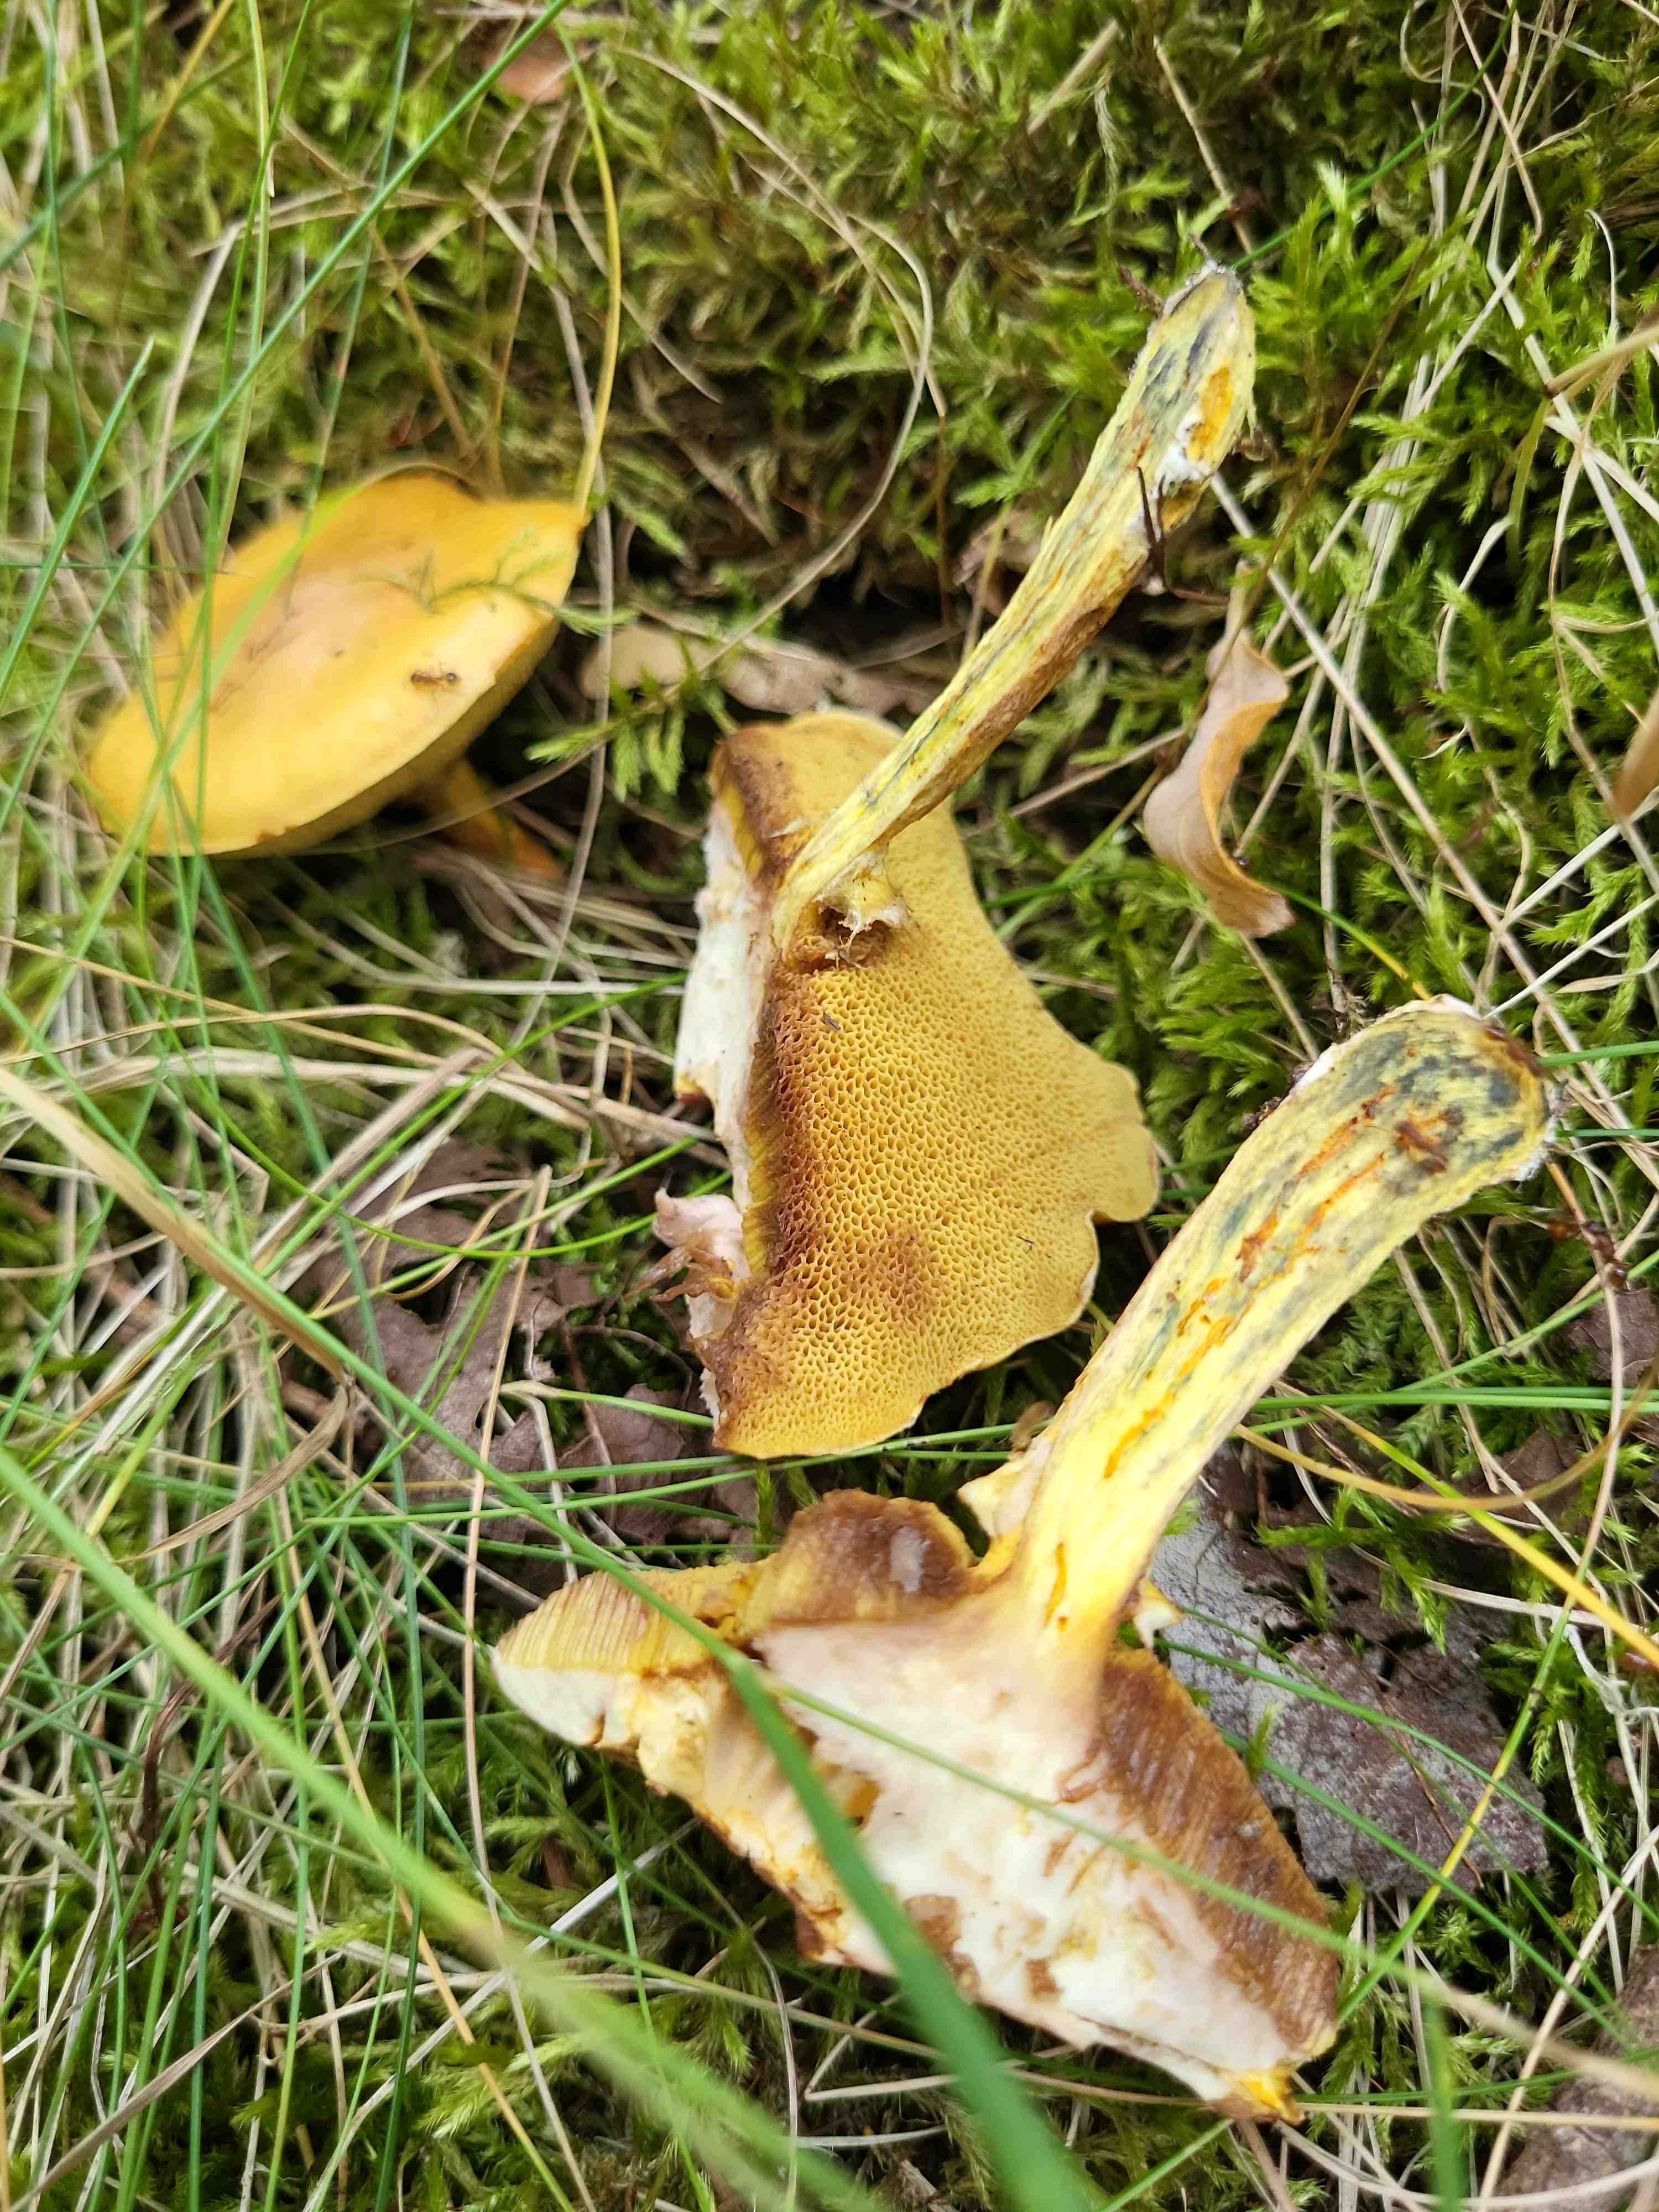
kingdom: Fungi
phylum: Basidiomycota
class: Agaricomycetes
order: Boletales
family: Suillaceae
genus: Suillus
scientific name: Suillus grevillei
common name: lærke-slimrørhat
